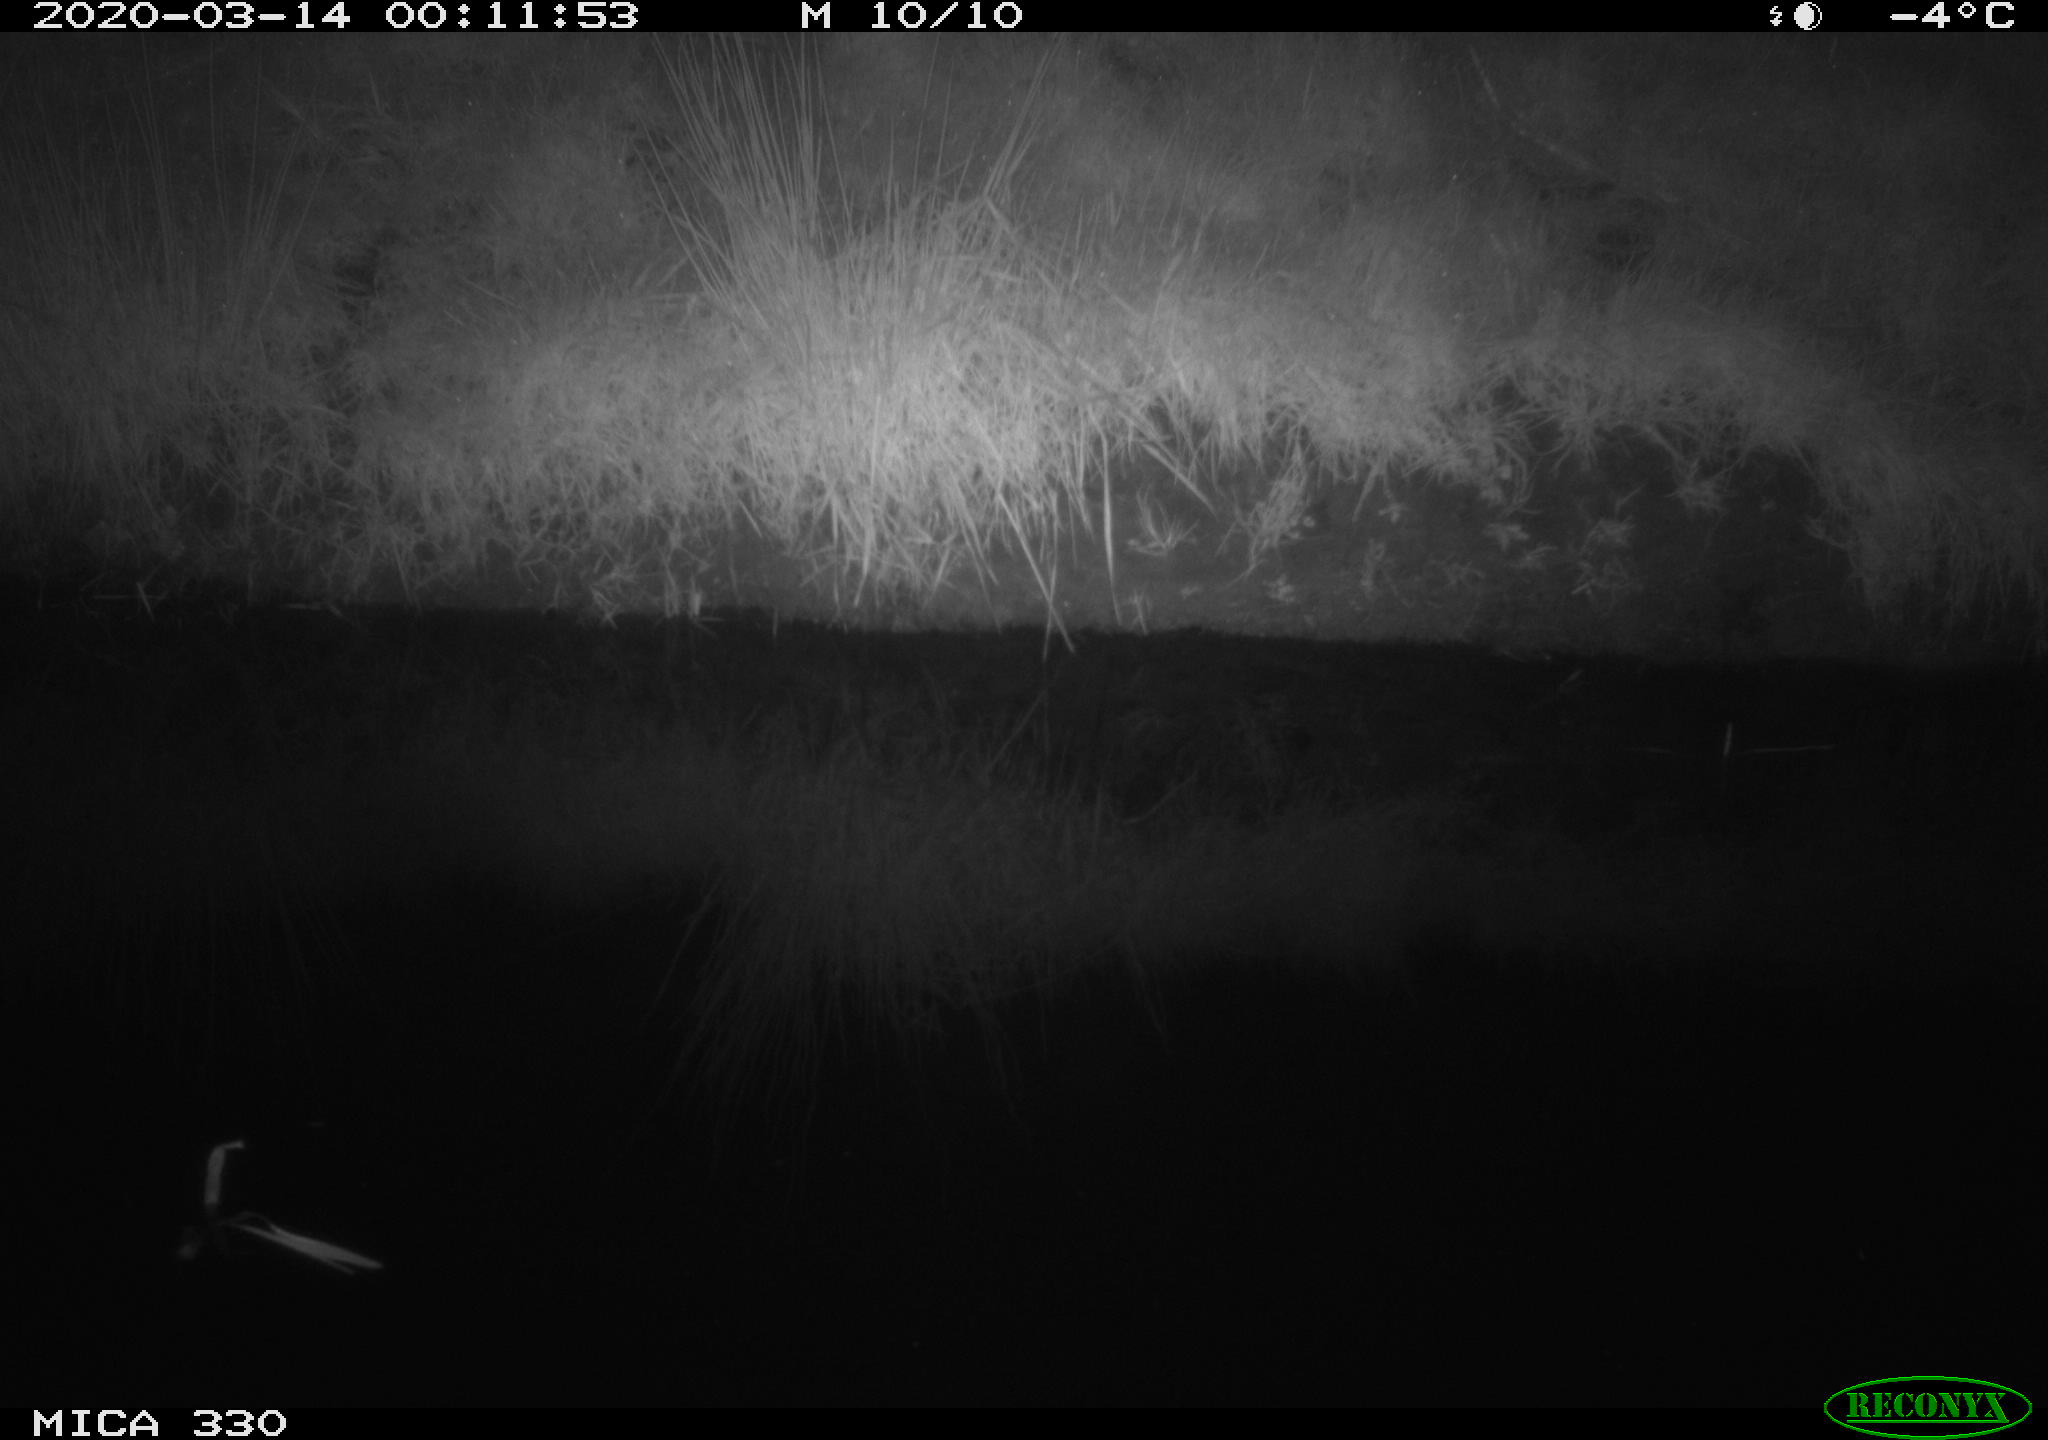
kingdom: Animalia
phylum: Chordata
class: Aves
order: Anseriformes
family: Anatidae
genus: Anas
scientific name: Anas platyrhynchos
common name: Mallard
